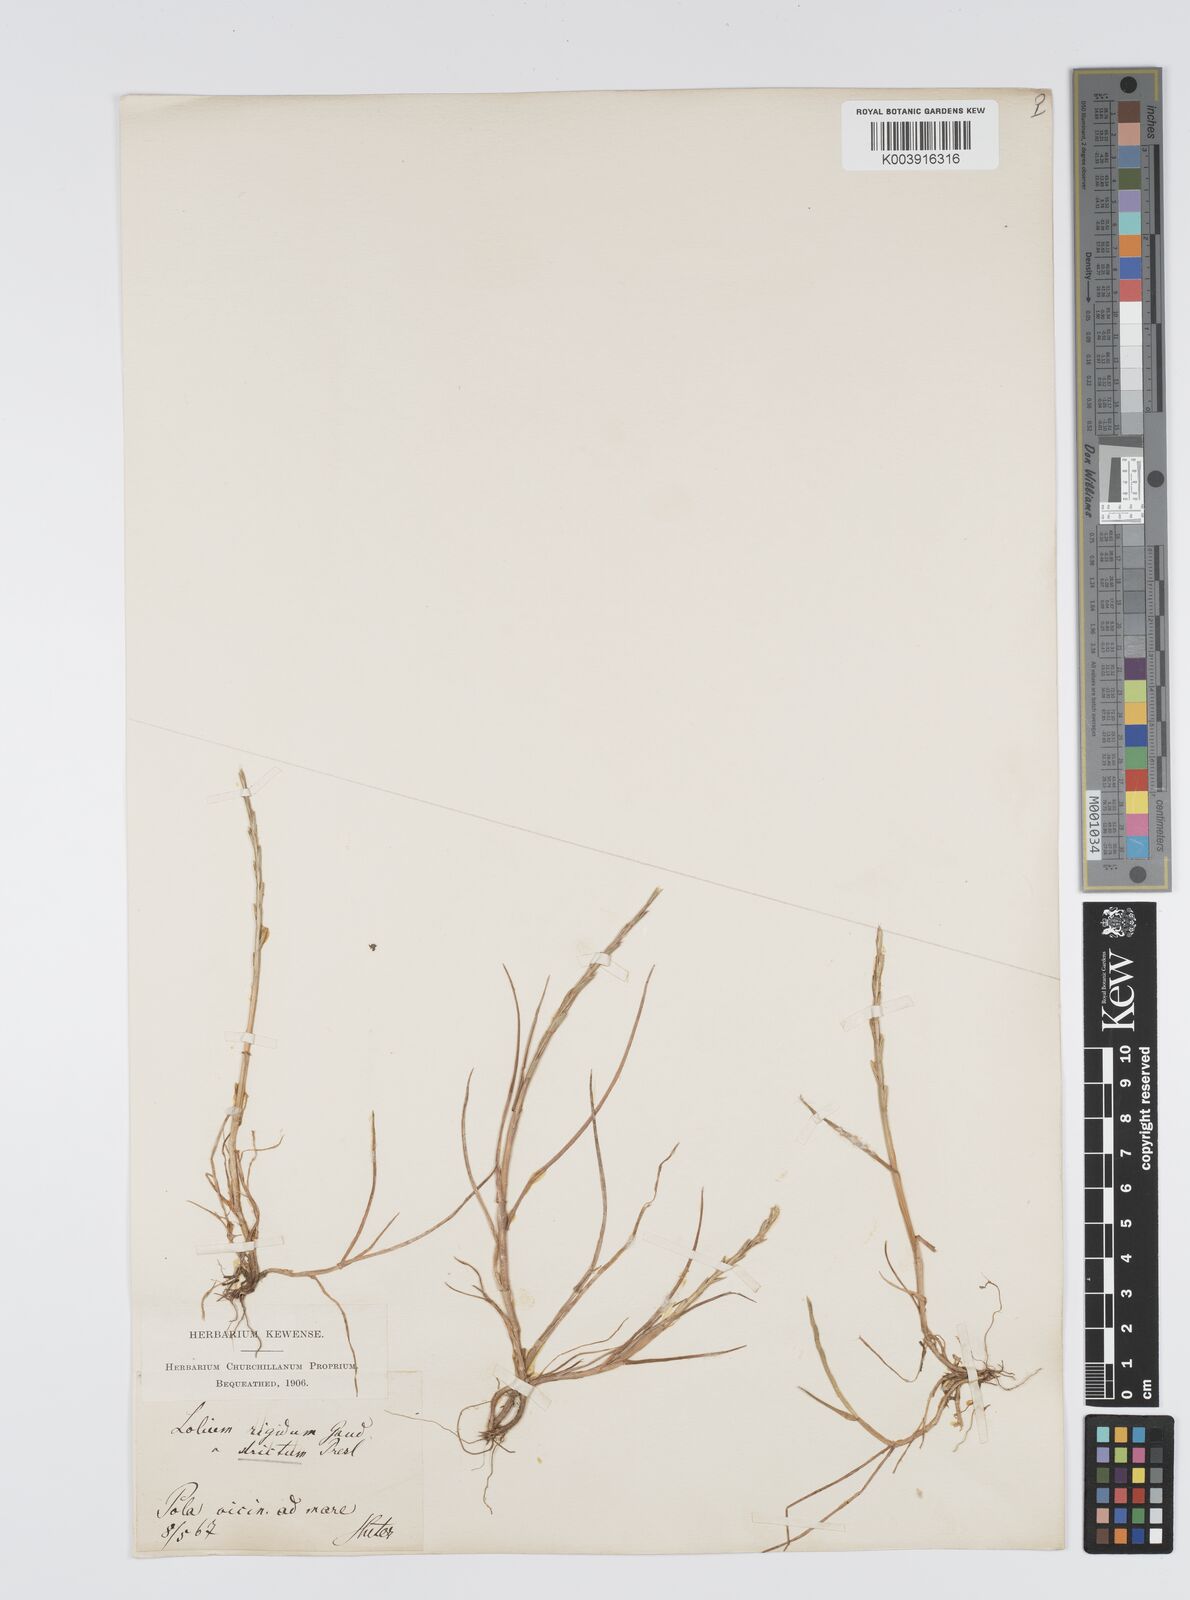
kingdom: Plantae
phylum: Tracheophyta
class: Liliopsida
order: Poales
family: Poaceae
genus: Lolium
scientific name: Lolium rigidum
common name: Wimmera ryegrass
